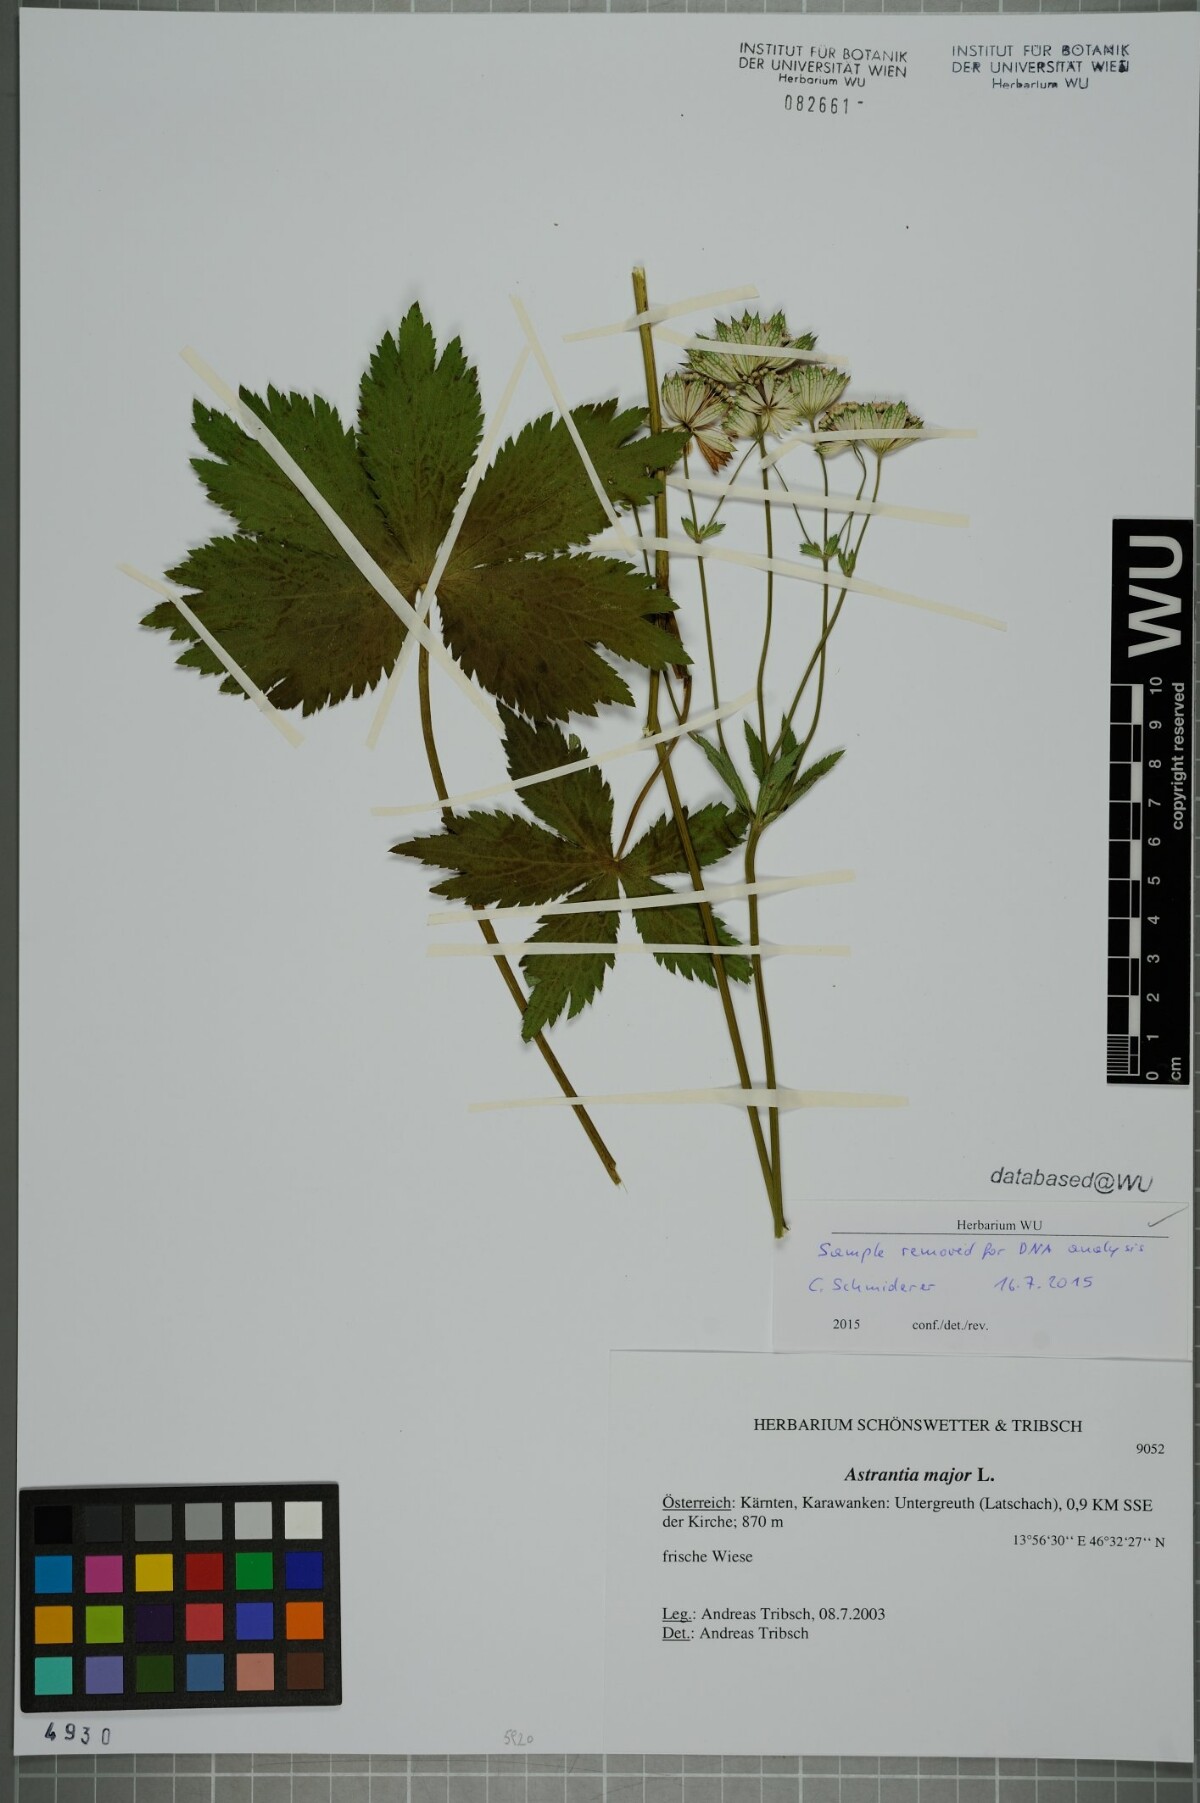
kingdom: Plantae
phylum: Tracheophyta
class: Magnoliopsida
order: Apiales
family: Apiaceae
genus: Astrantia
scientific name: Astrantia major
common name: Greater masterwort
